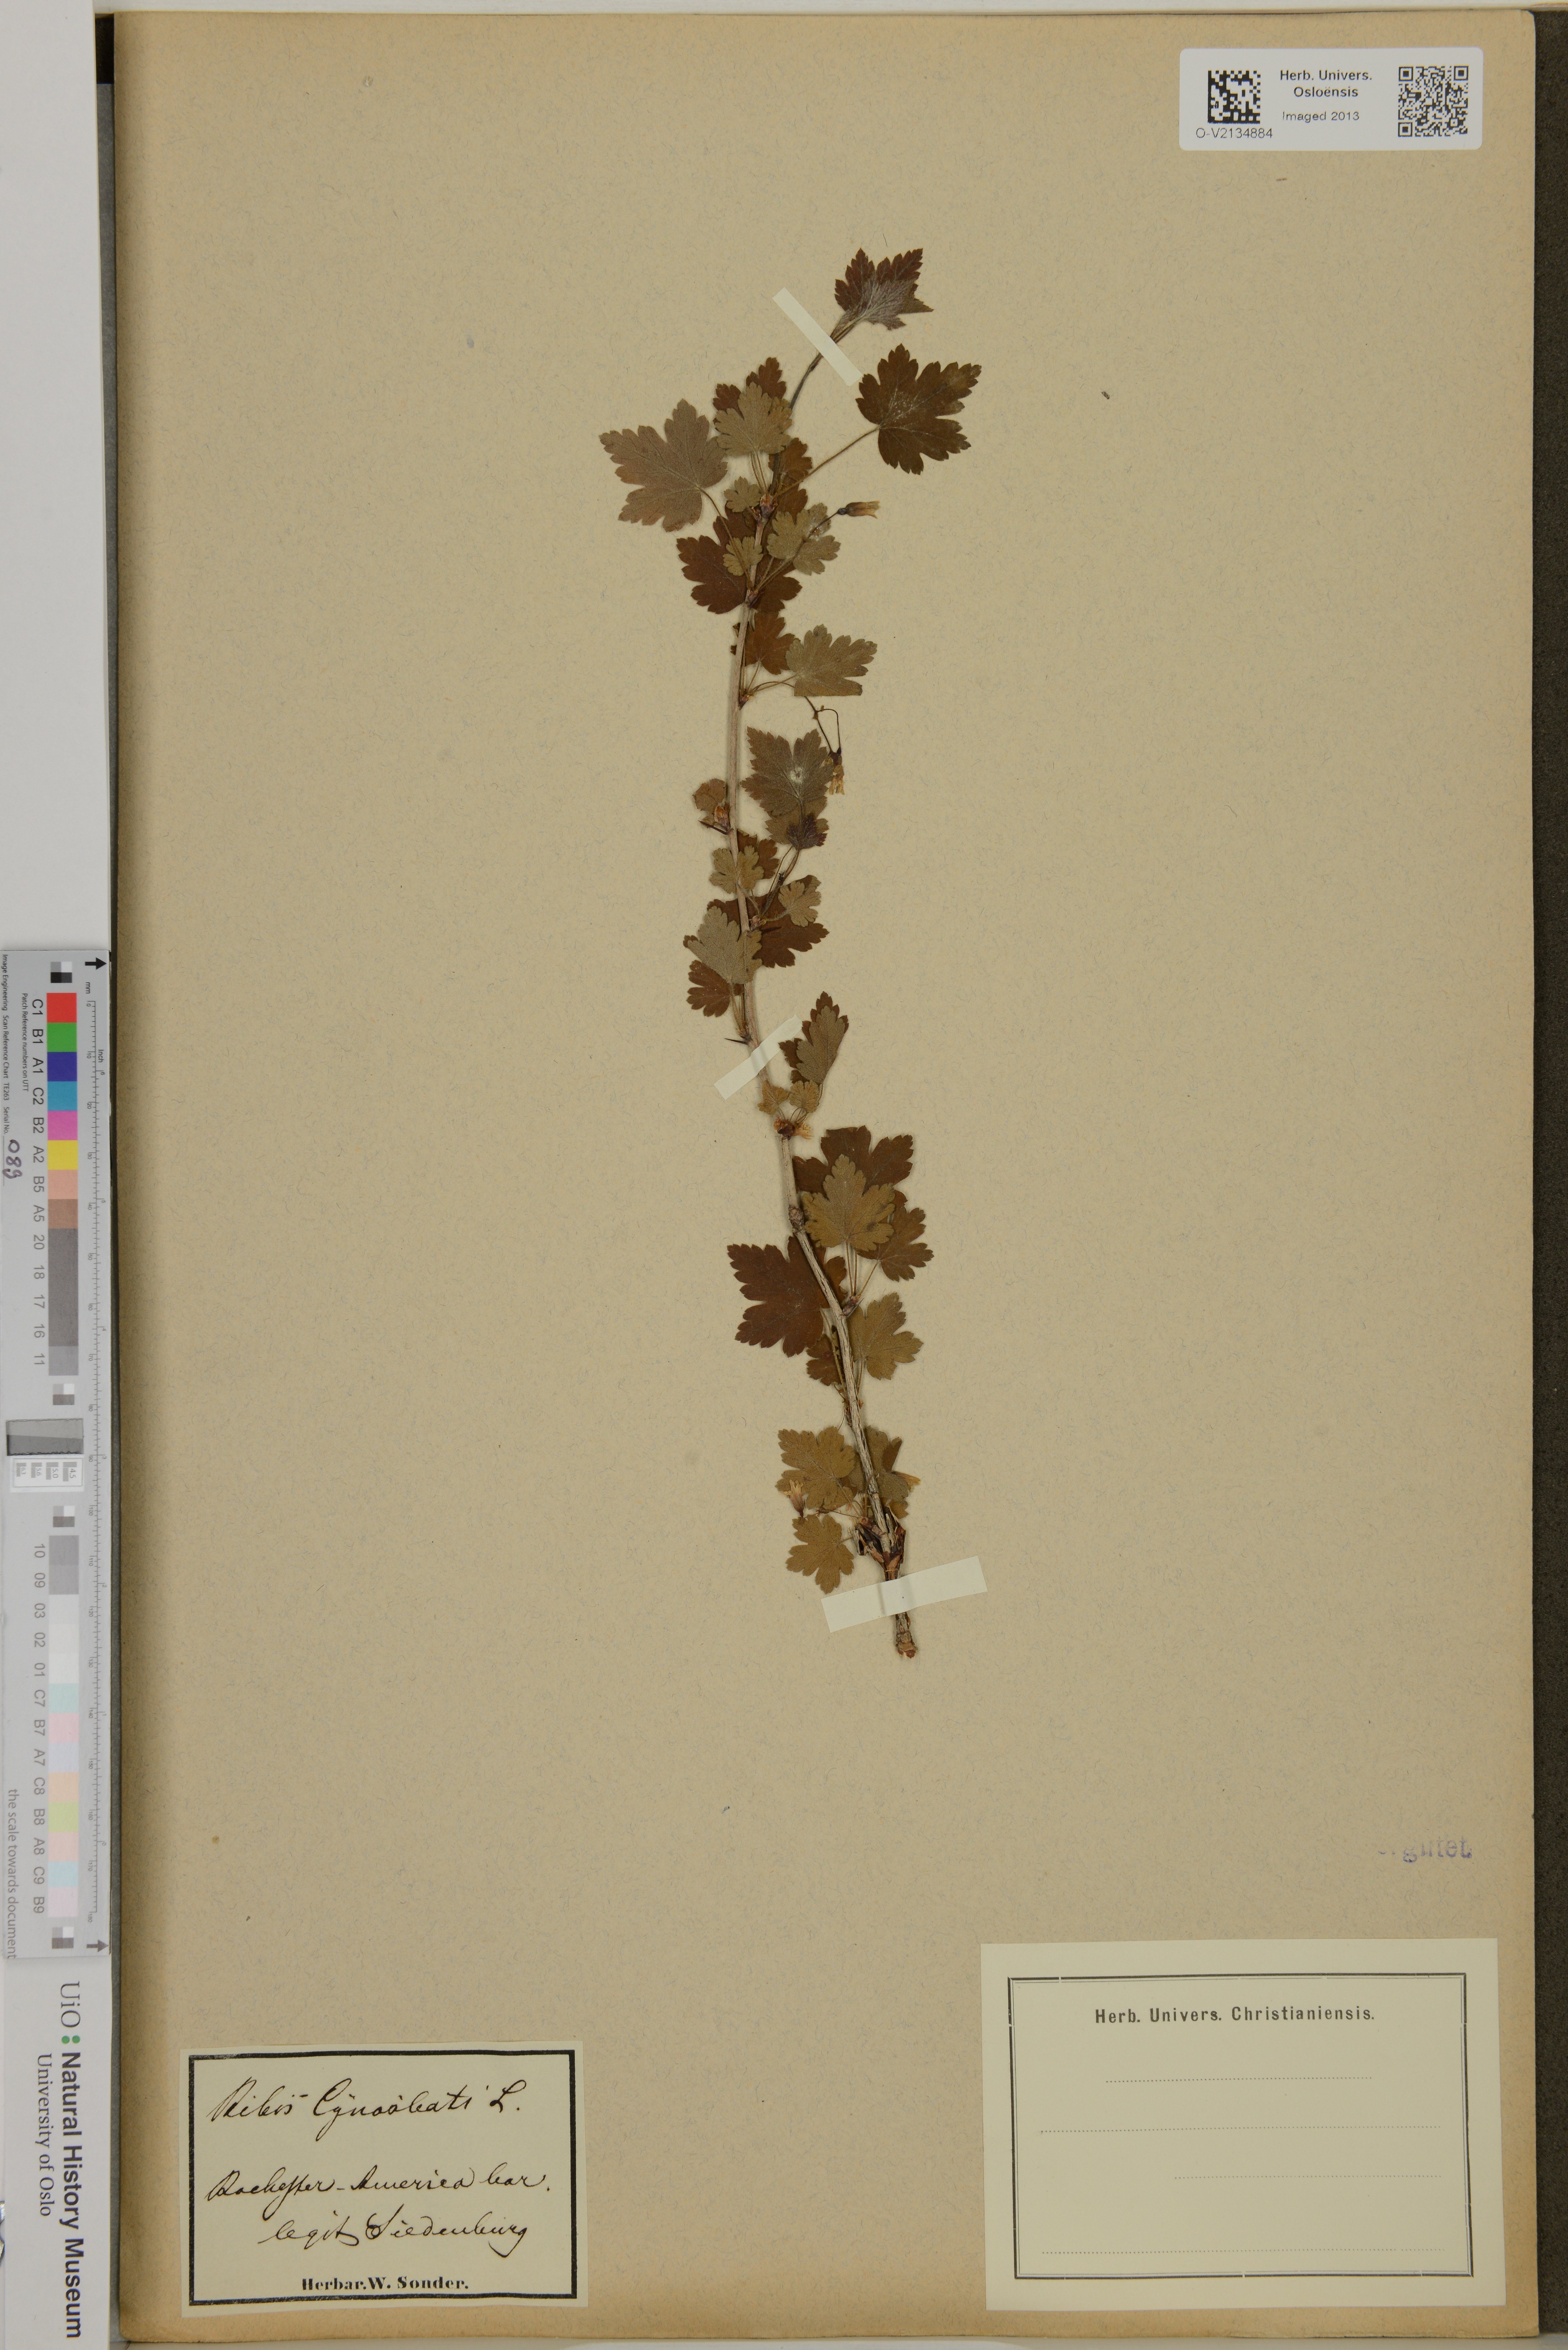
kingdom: Plantae
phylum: Tracheophyta
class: Magnoliopsida
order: Saxifragales
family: Grossulariaceae
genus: Ribes
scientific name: Ribes cynosbati
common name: American gooseberry
